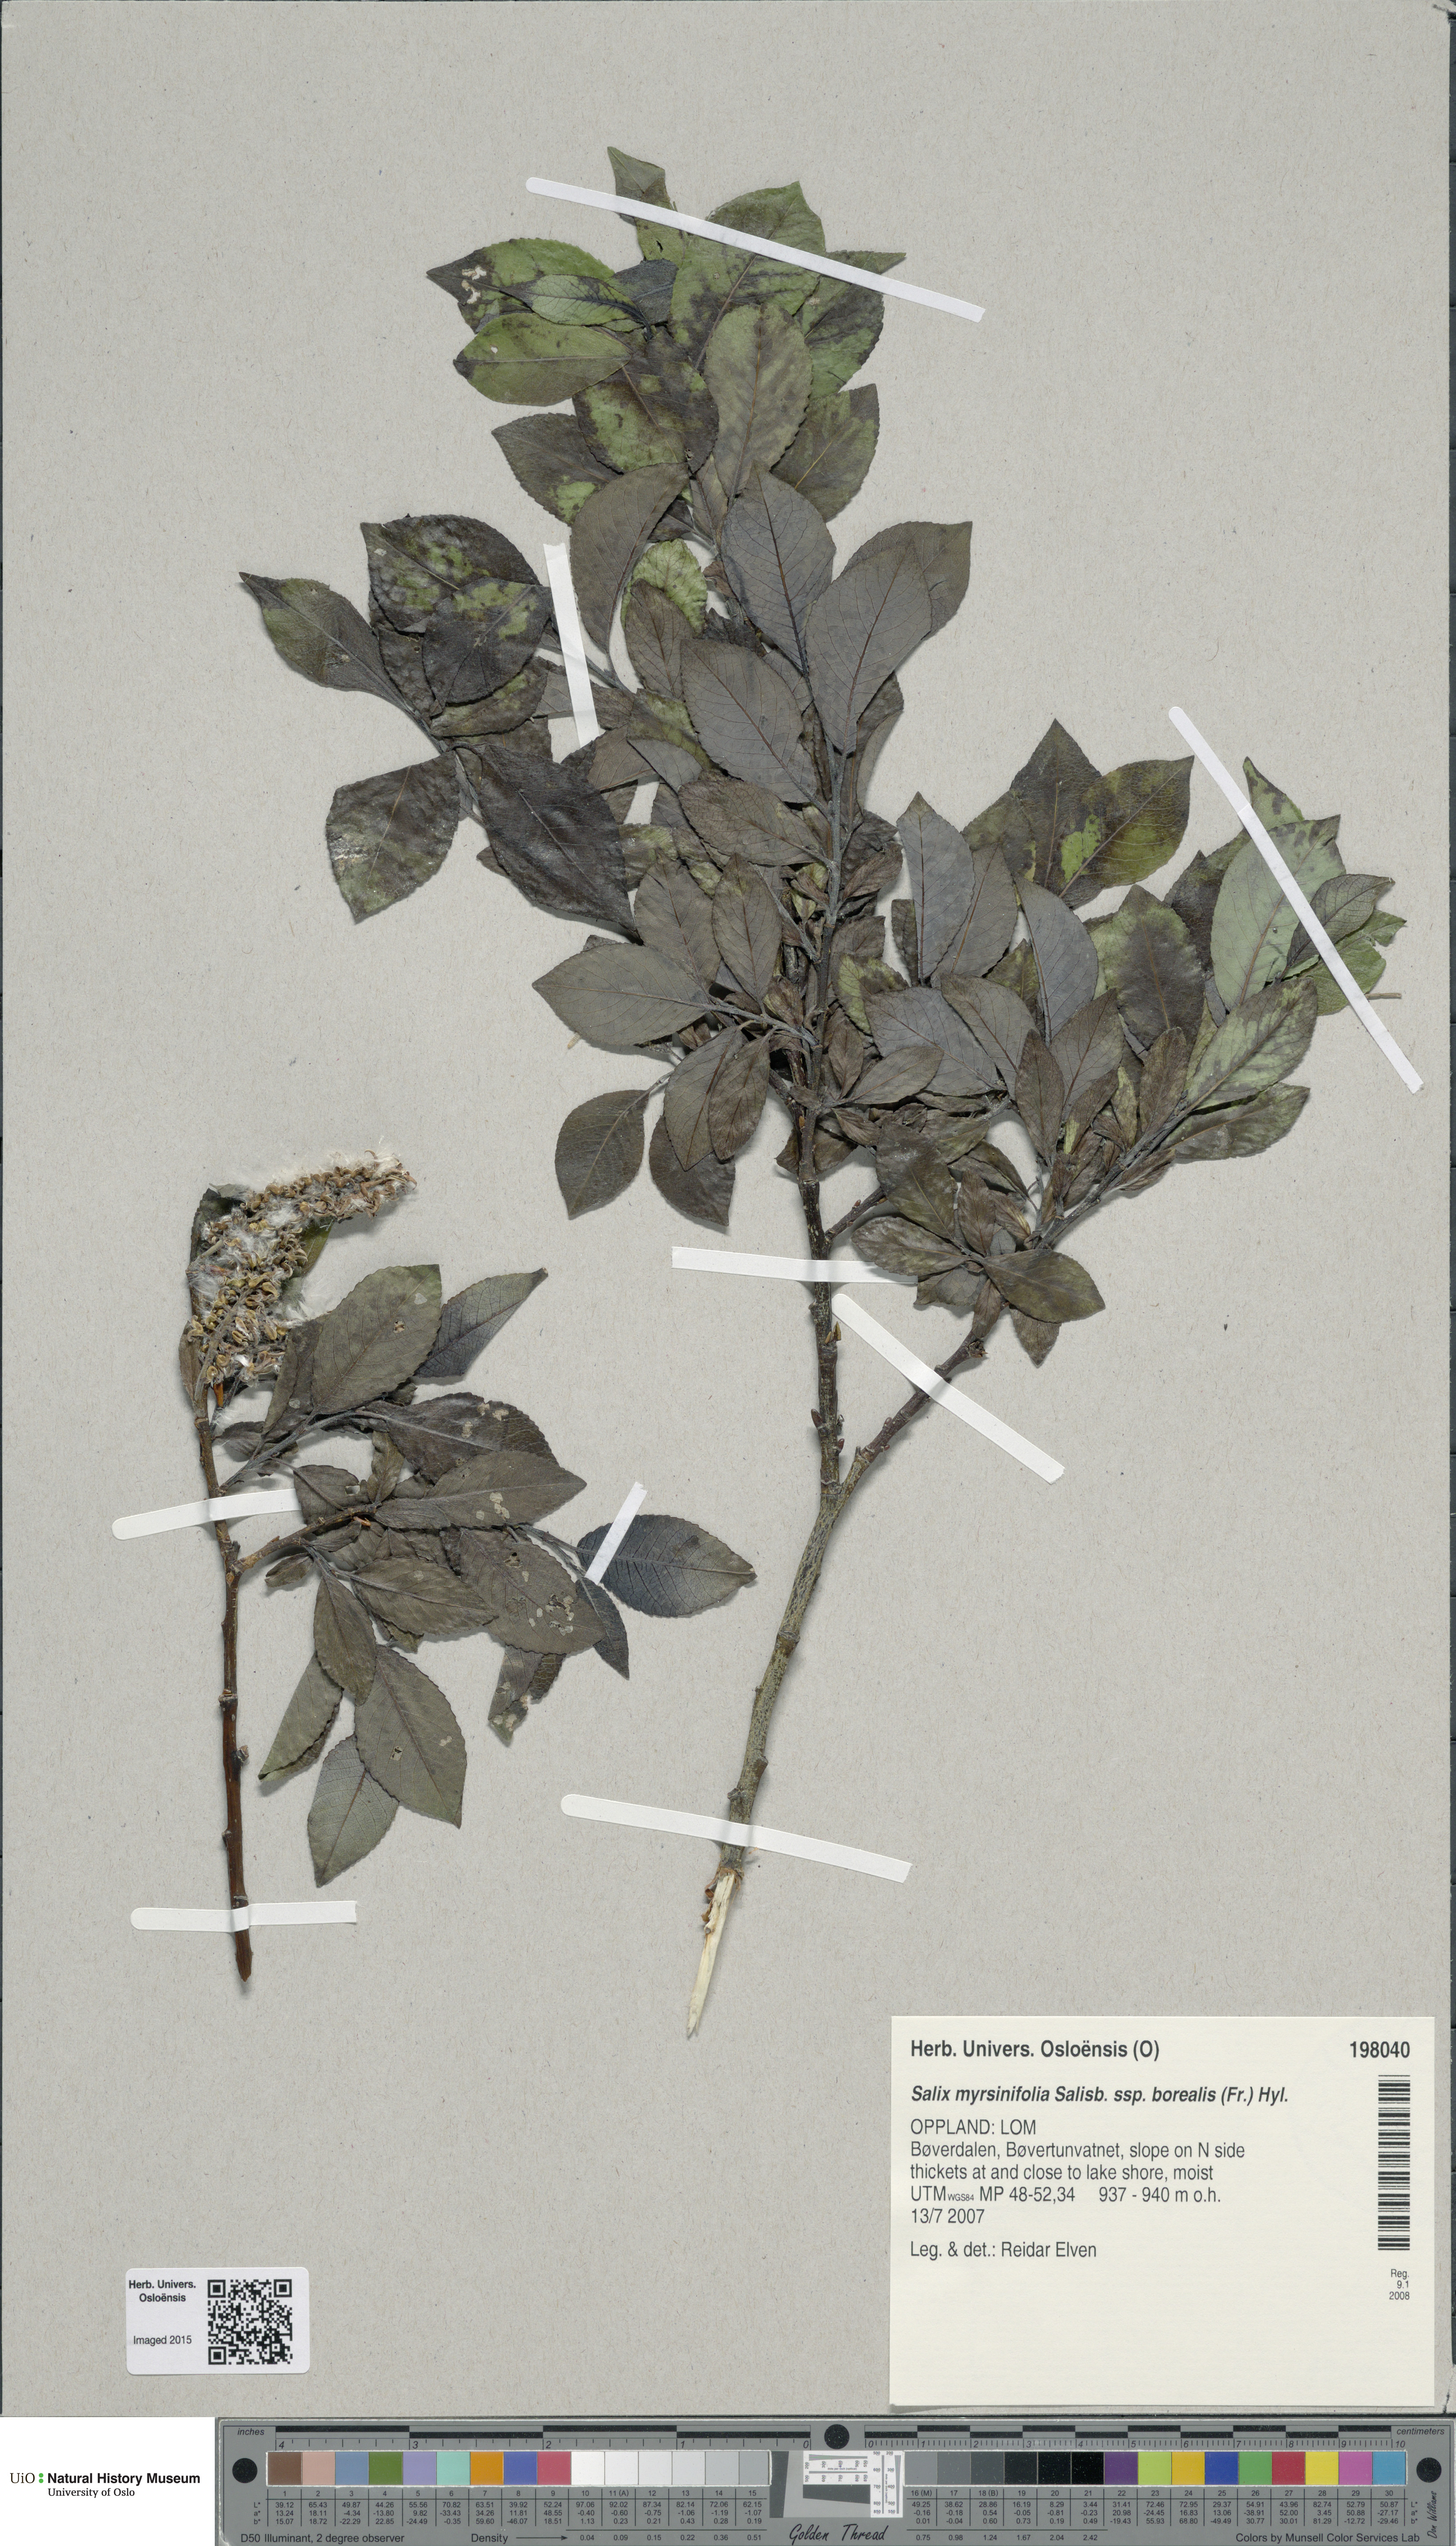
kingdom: Plantae
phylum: Tracheophyta
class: Magnoliopsida
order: Malpighiales
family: Salicaceae
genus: Salix
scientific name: Salix myrsinifolia
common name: Dark-leaved willow
